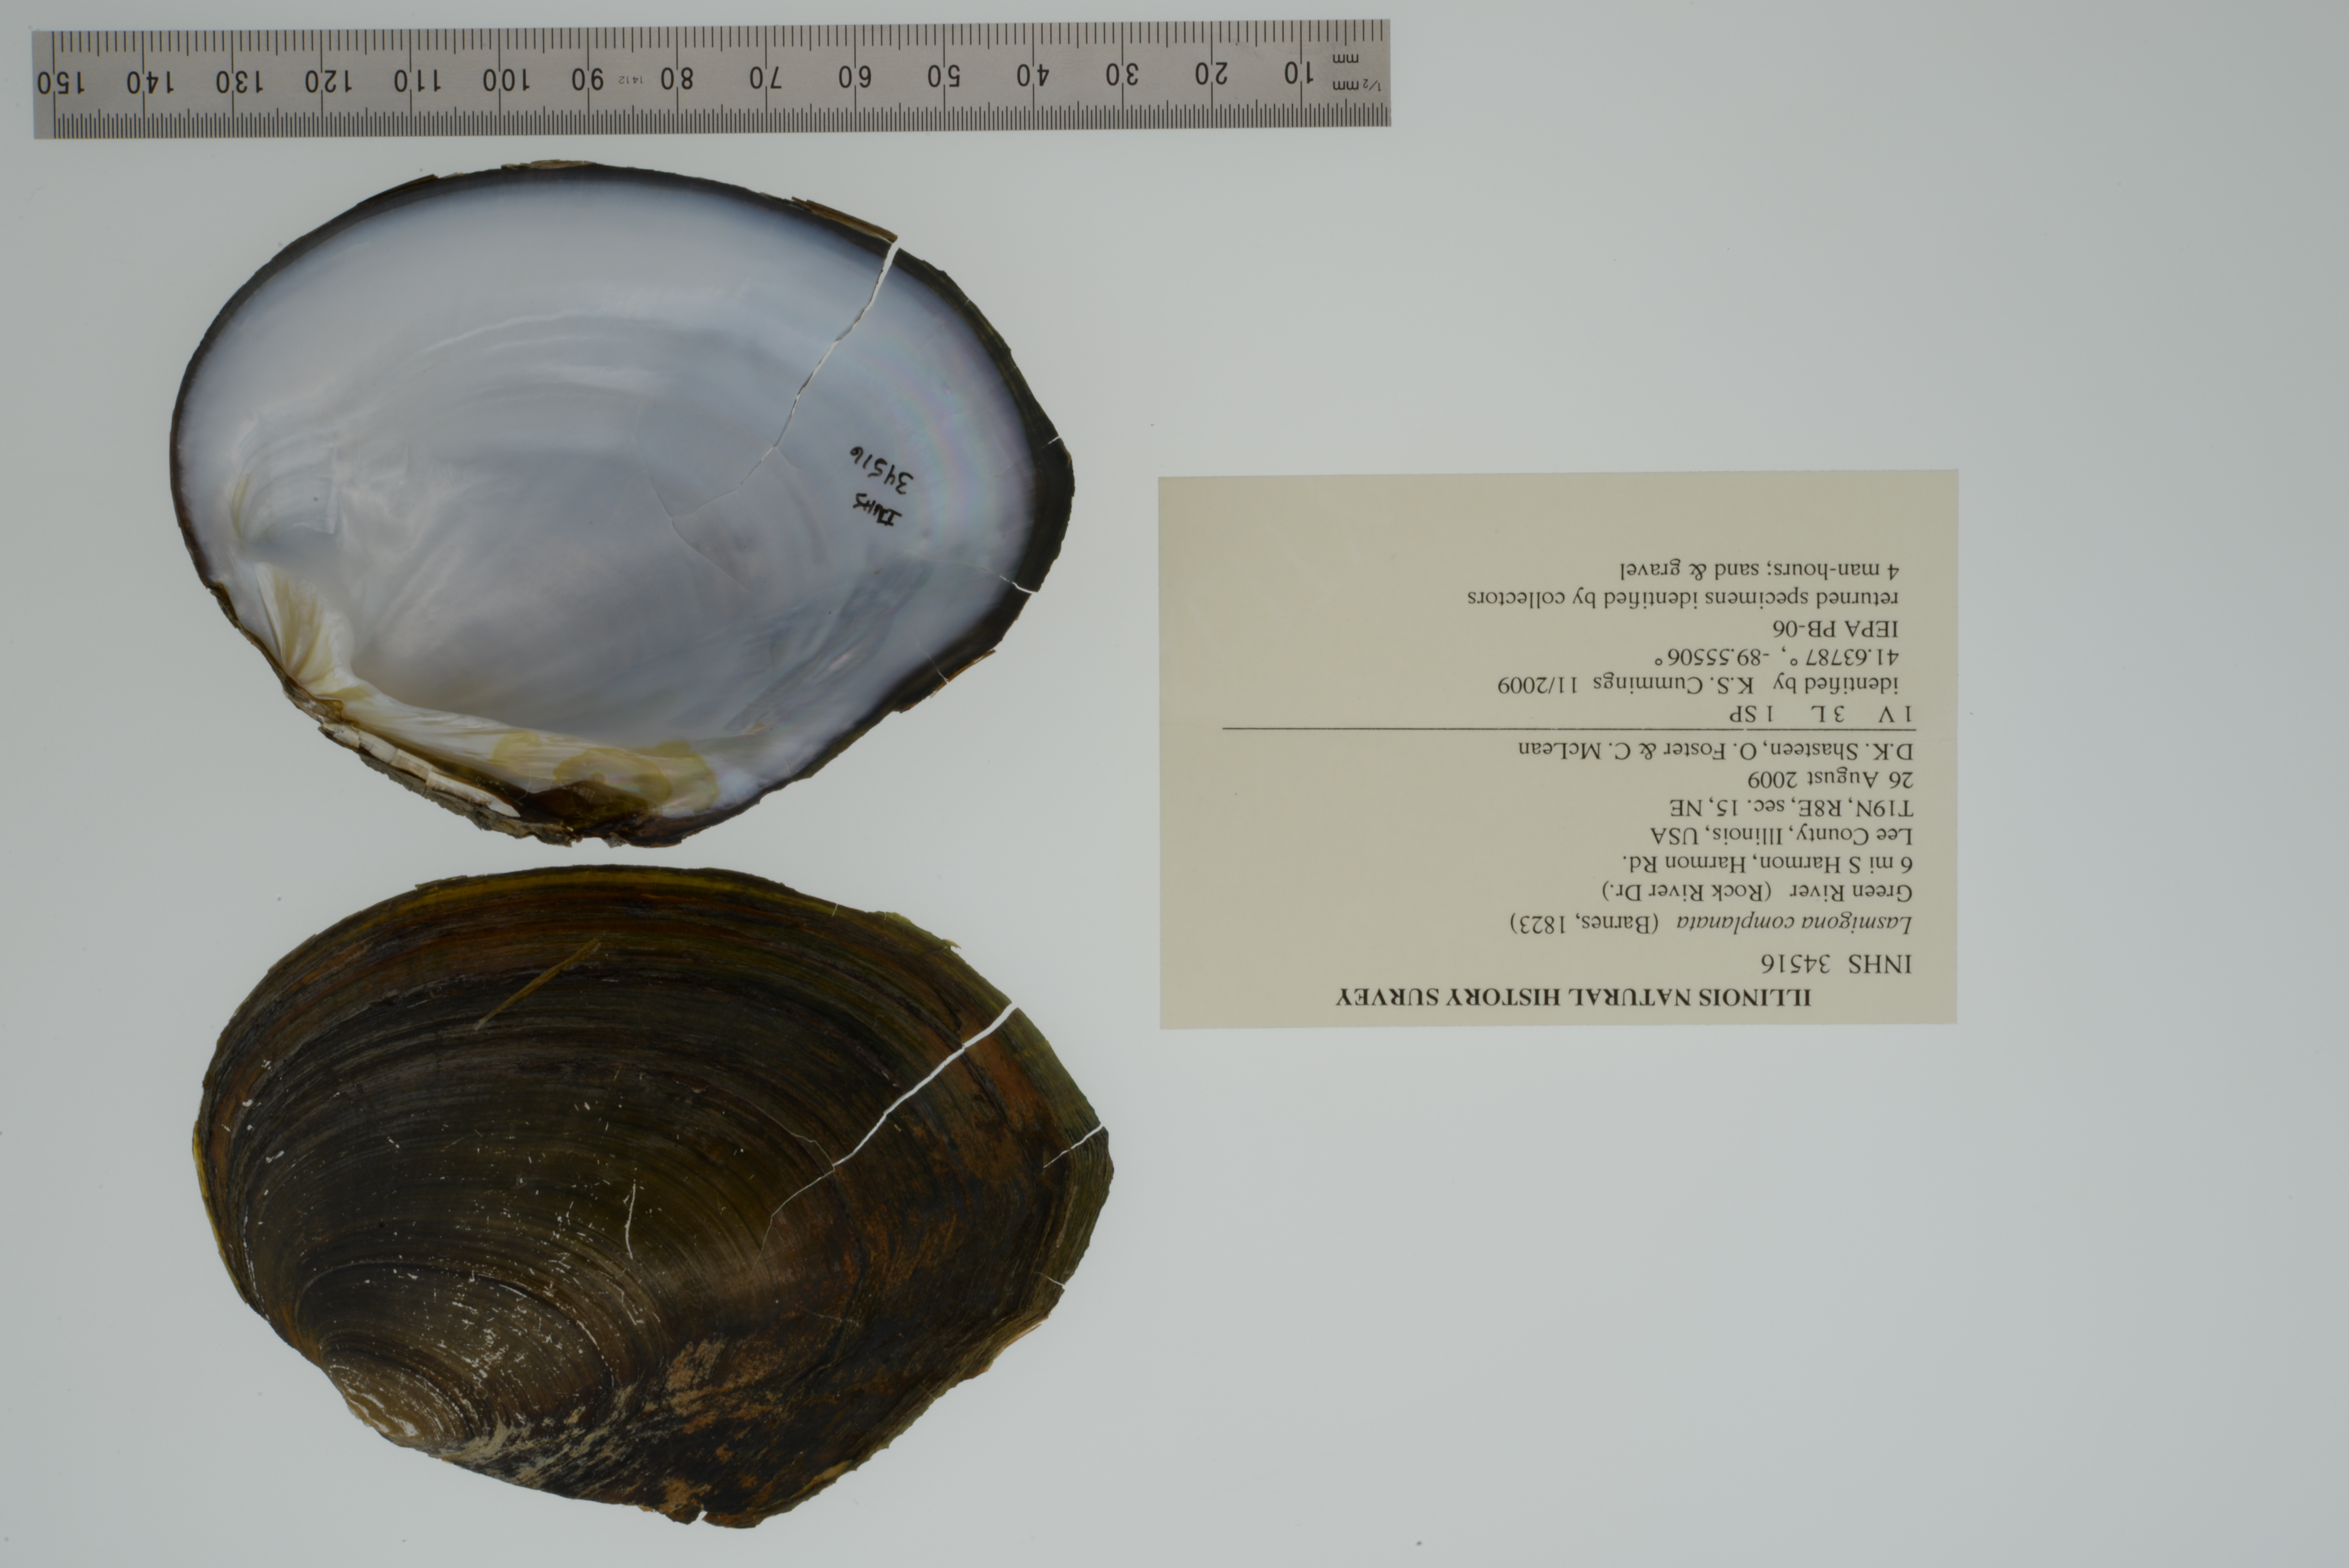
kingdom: Animalia
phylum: Mollusca
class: Bivalvia
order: Unionida
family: Unionidae
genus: Lasmigona
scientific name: Lasmigona complanata
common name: White heelsplitter
